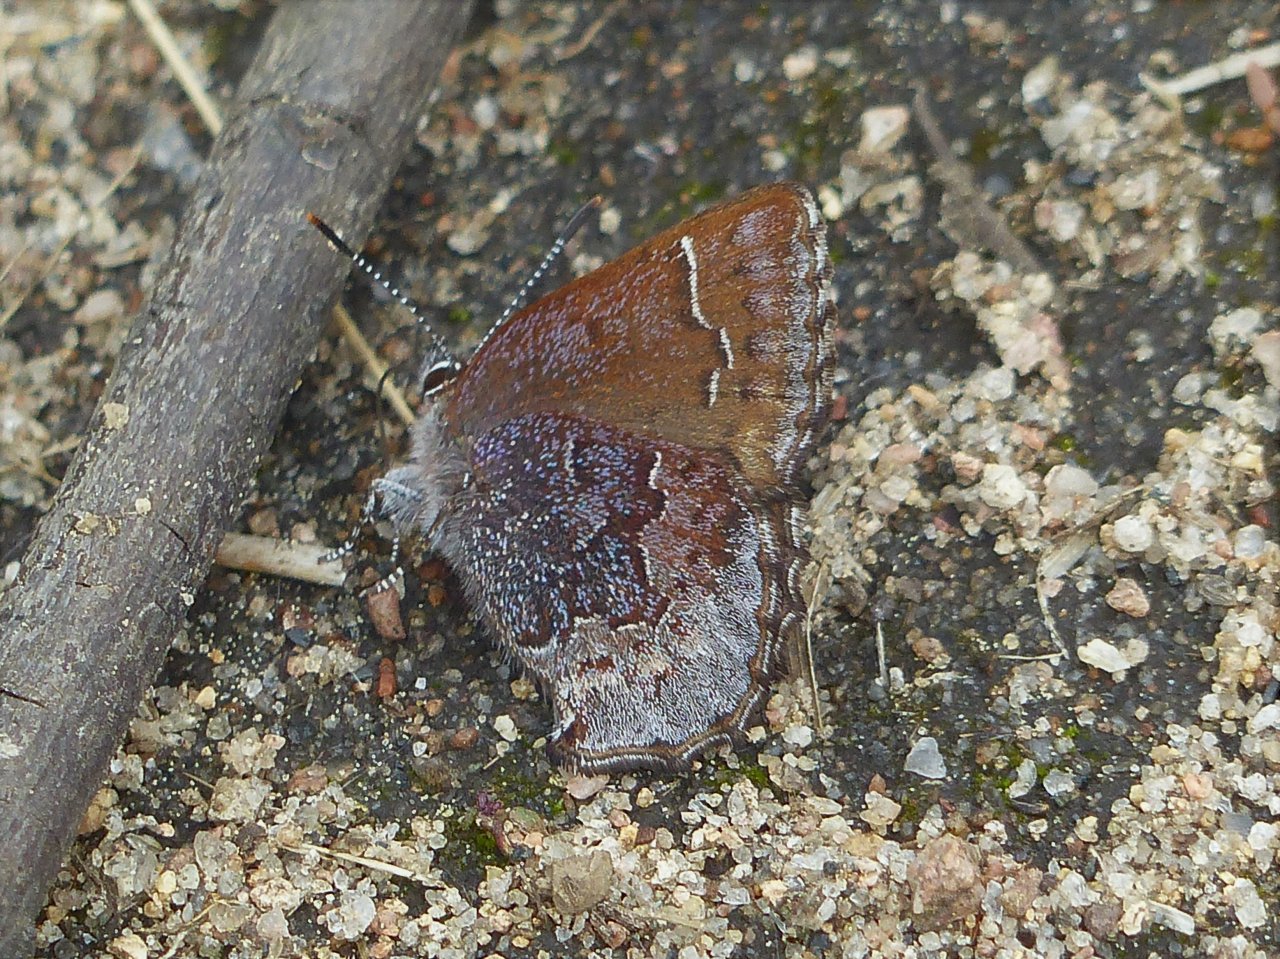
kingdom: Animalia
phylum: Arthropoda
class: Insecta
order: Lepidoptera
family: Lycaenidae
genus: Callophrys
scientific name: Callophrys polios
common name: Hoary Elfin
